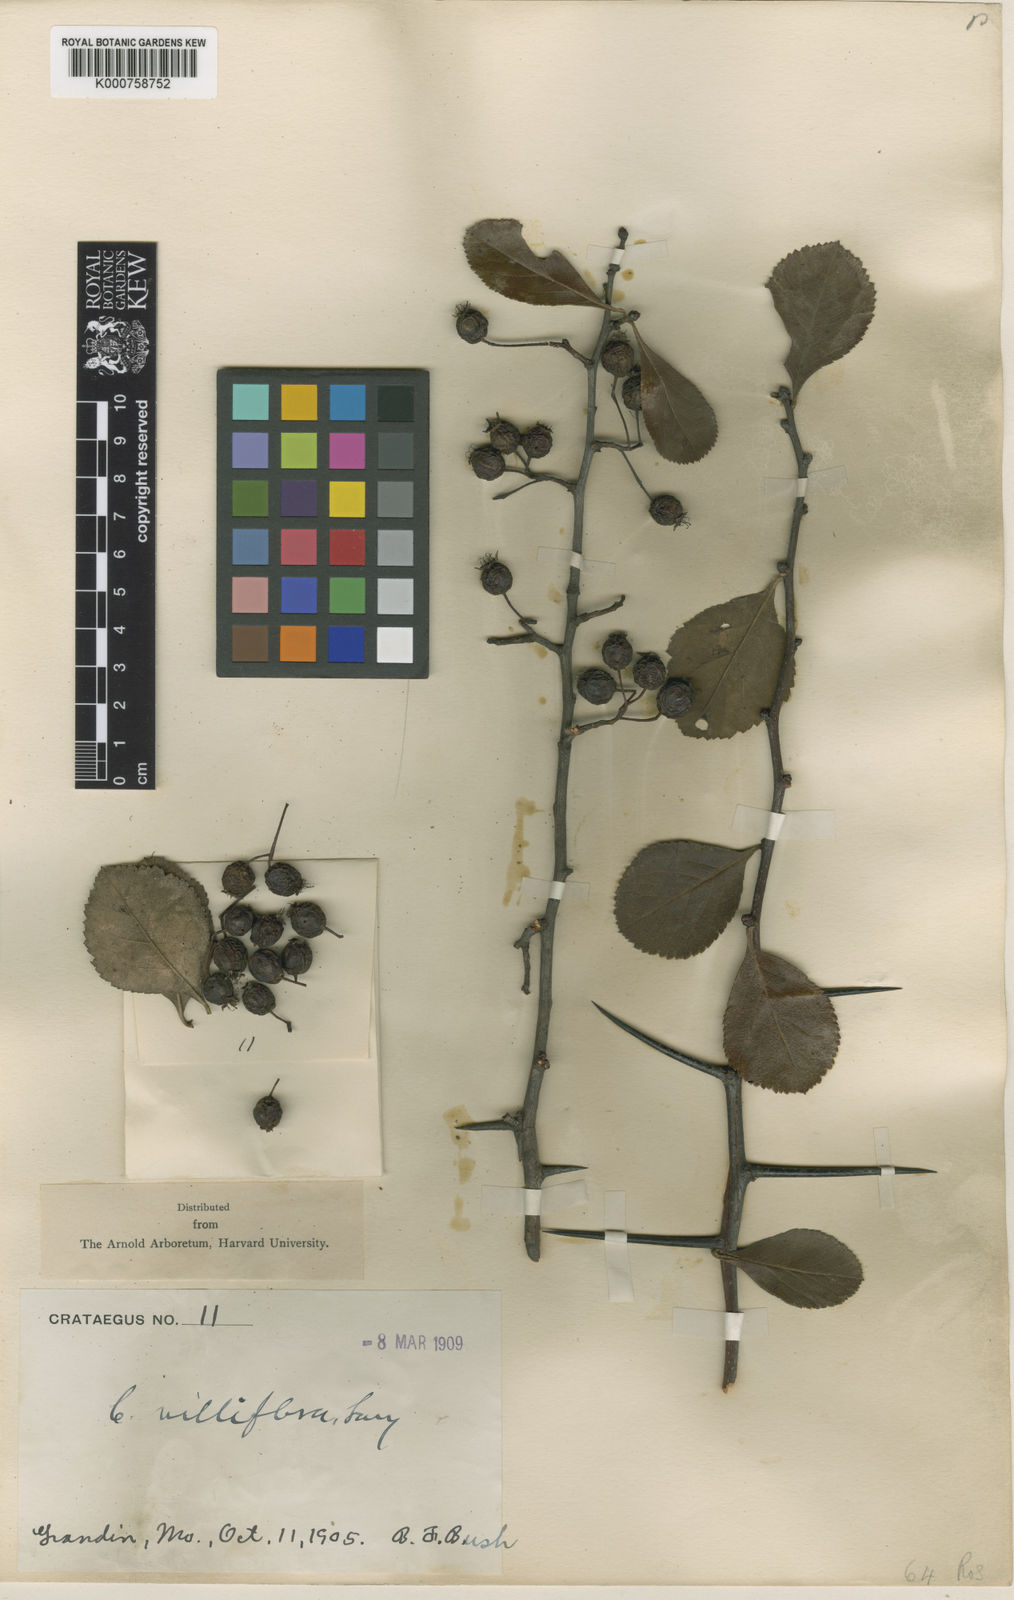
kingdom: Plantae
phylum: Tracheophyta
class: Magnoliopsida
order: Rosales
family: Rosaceae
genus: Crataegus
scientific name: Crataegus villiflora
